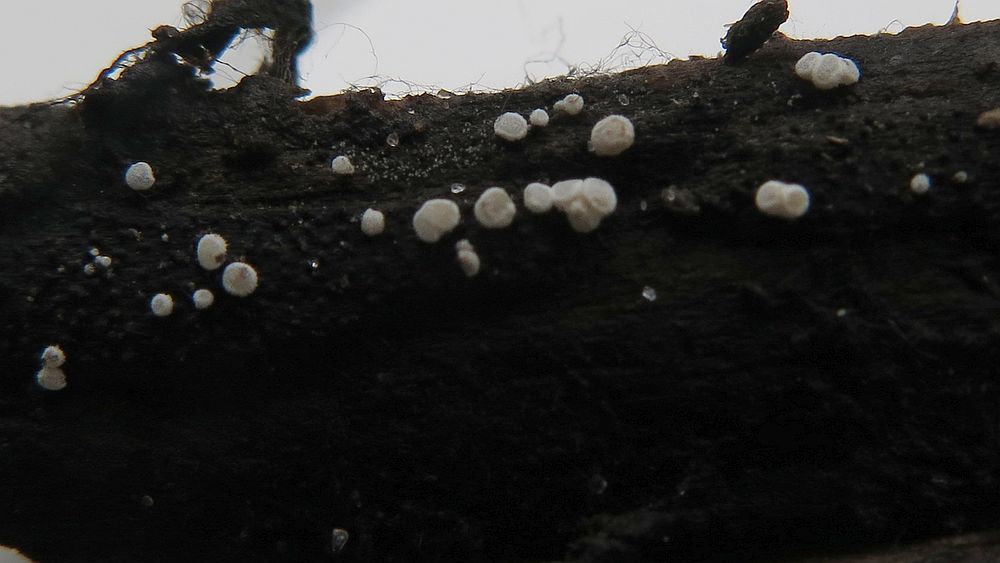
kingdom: Fungi
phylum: Ascomycota
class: Leotiomycetes
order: Helotiales
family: Hyaloscyphaceae
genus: Polydesmia
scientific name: Polydesmia pruinosa
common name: dunskive
